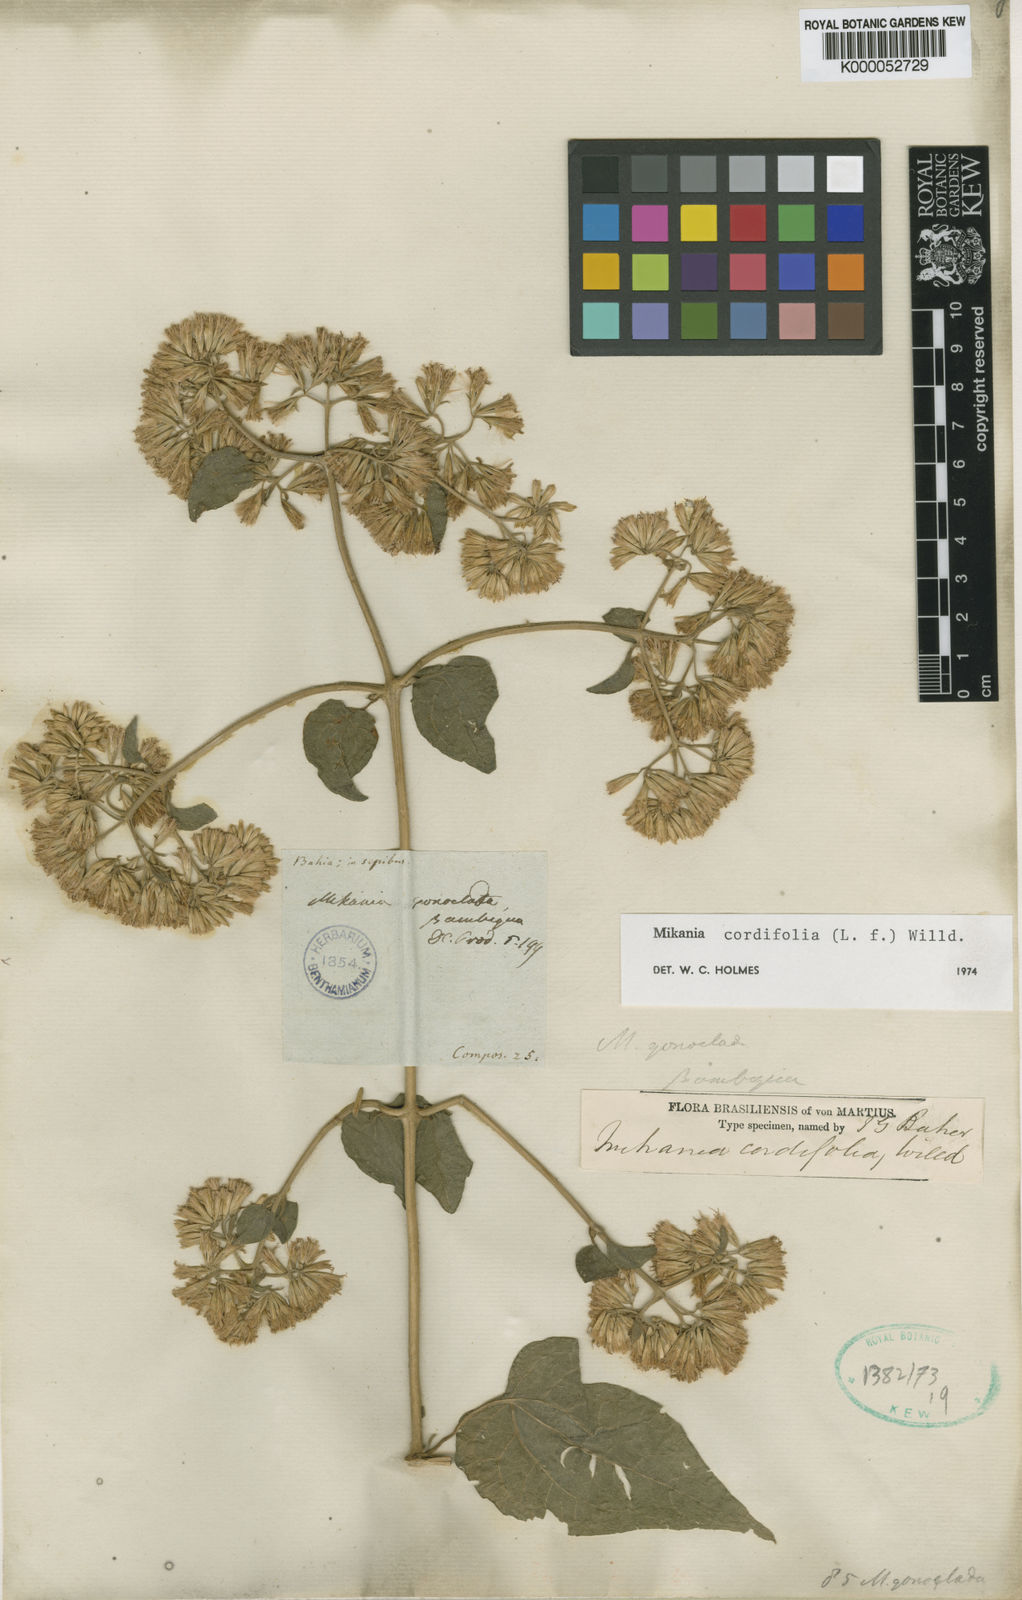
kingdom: Plantae
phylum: Tracheophyta
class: Magnoliopsida
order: Asterales
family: Asteraceae
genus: Mikania
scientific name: Mikania cordifolia
